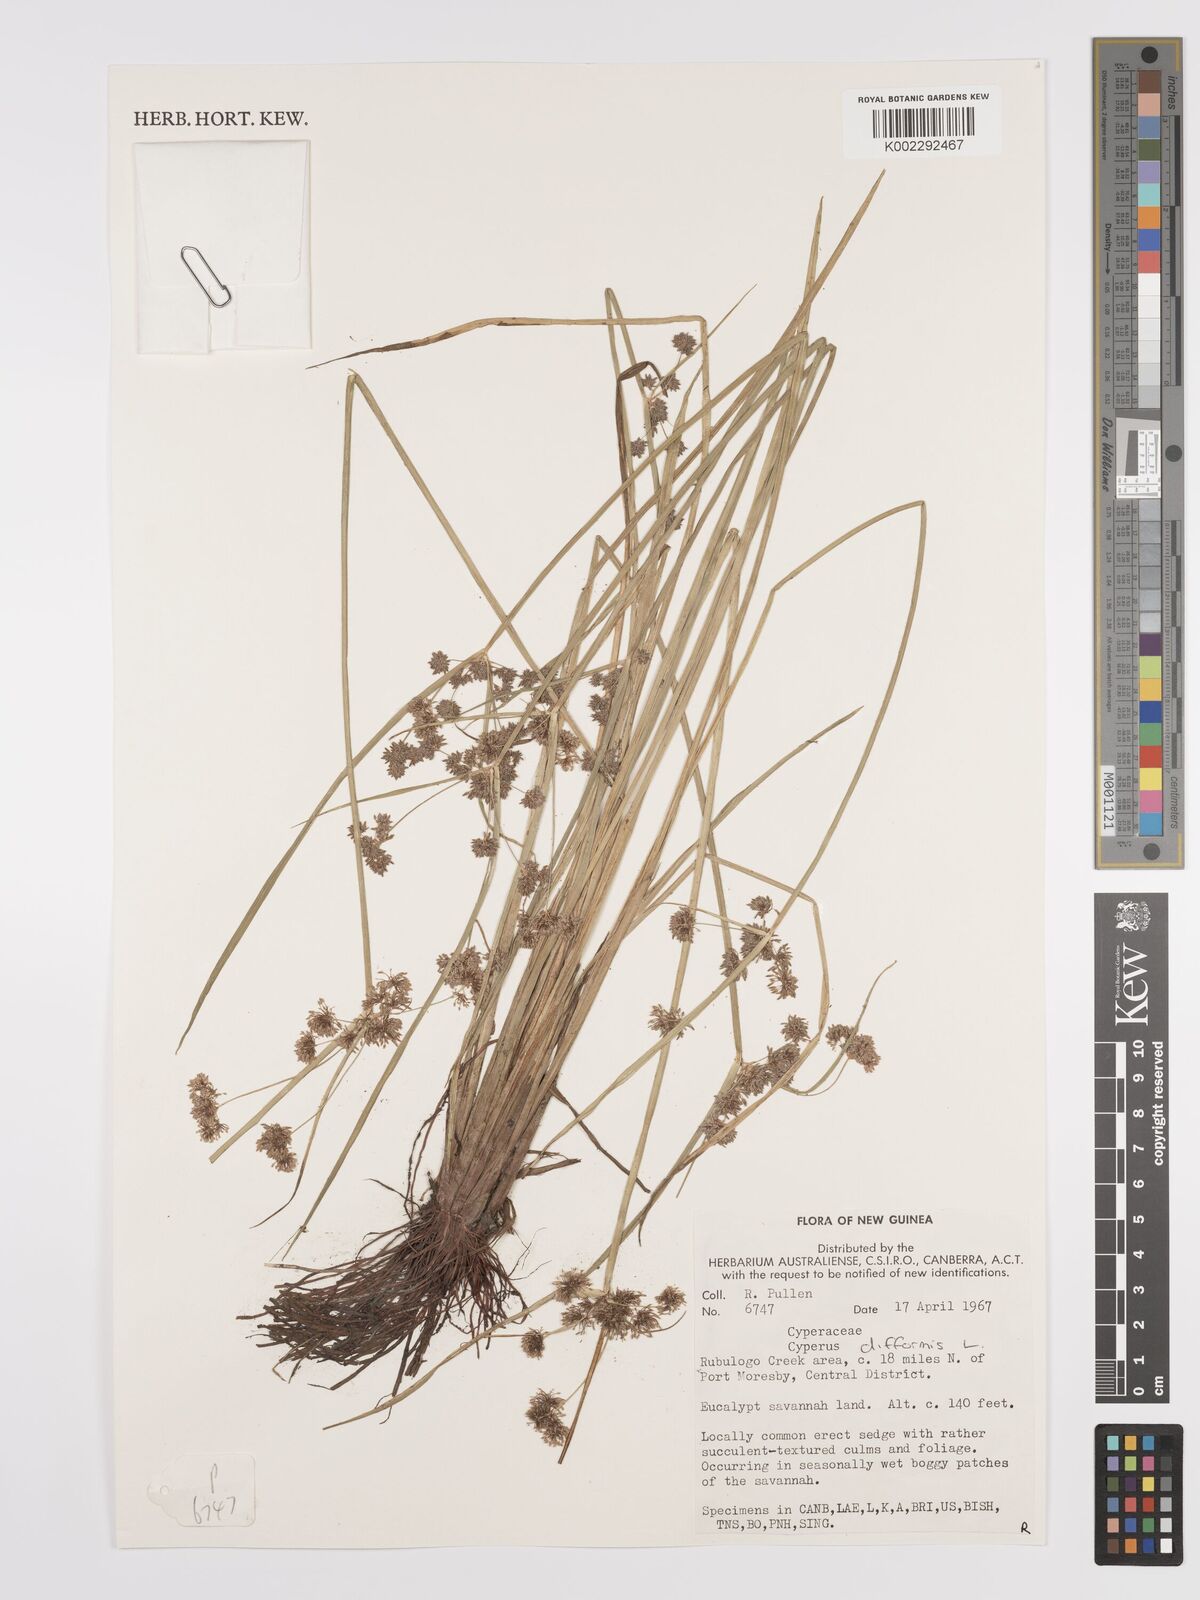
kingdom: Plantae
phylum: Tracheophyta
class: Liliopsida
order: Poales
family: Cyperaceae
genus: Cyperus
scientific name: Cyperus difformis
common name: Variable flatsedge
